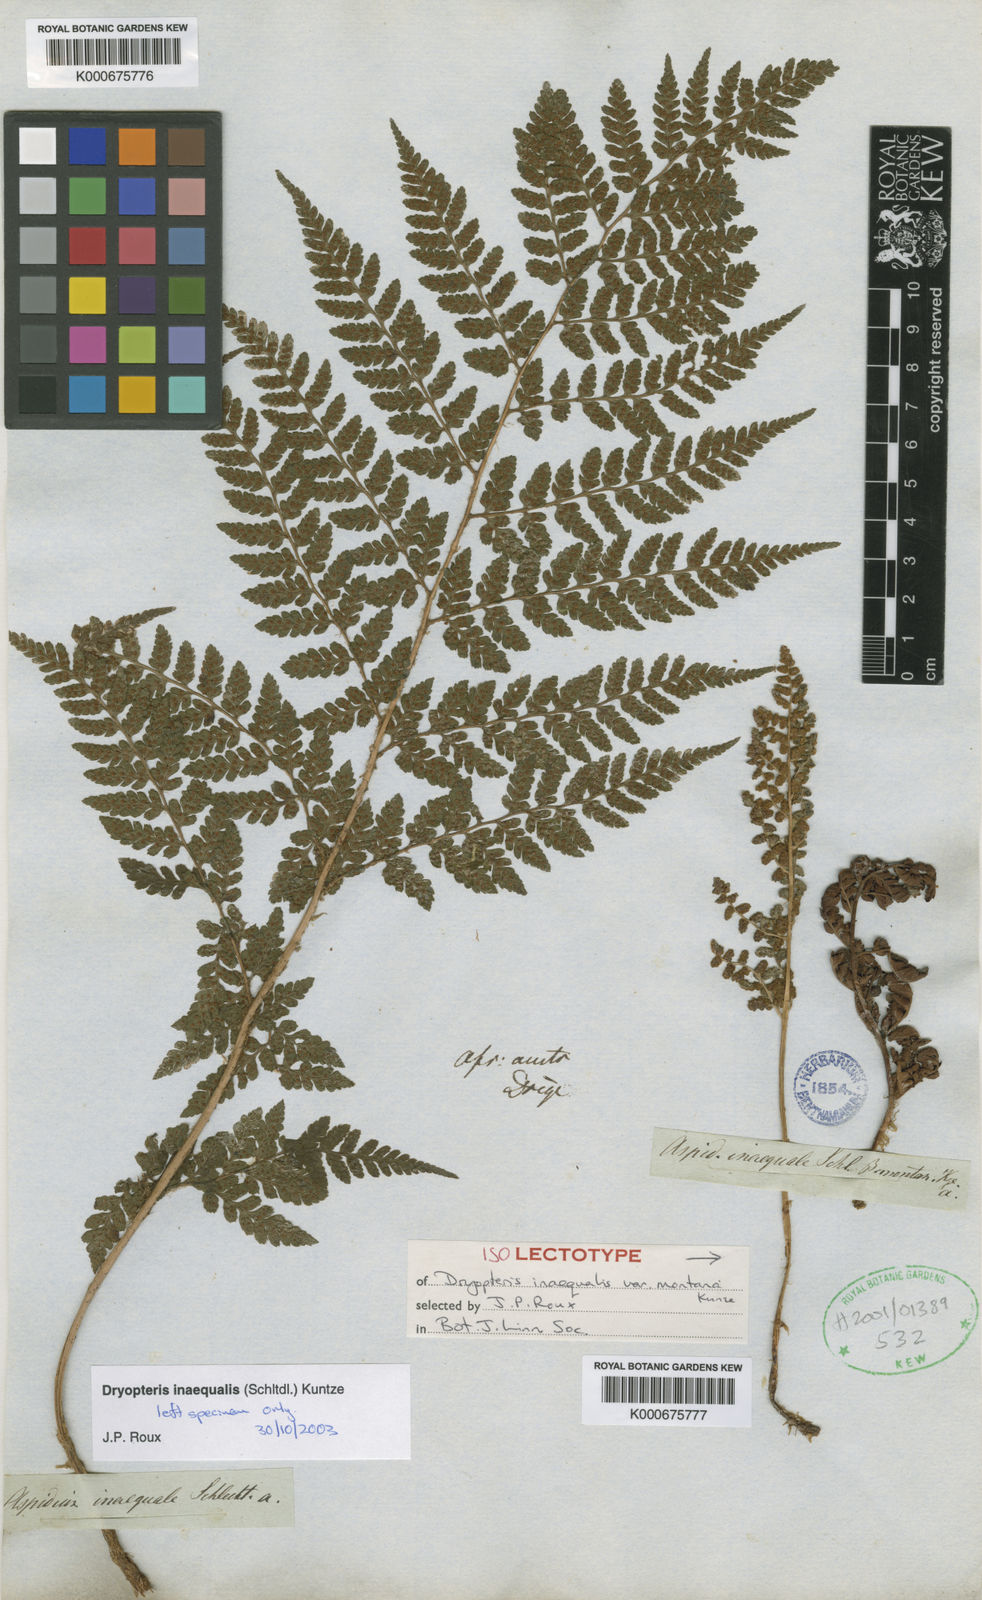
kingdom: Plantae
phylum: Tracheophyta
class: Polypodiopsida
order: Polypodiales
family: Dryopteridaceae
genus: Dryopteris
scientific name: Dryopteris inaequalis
